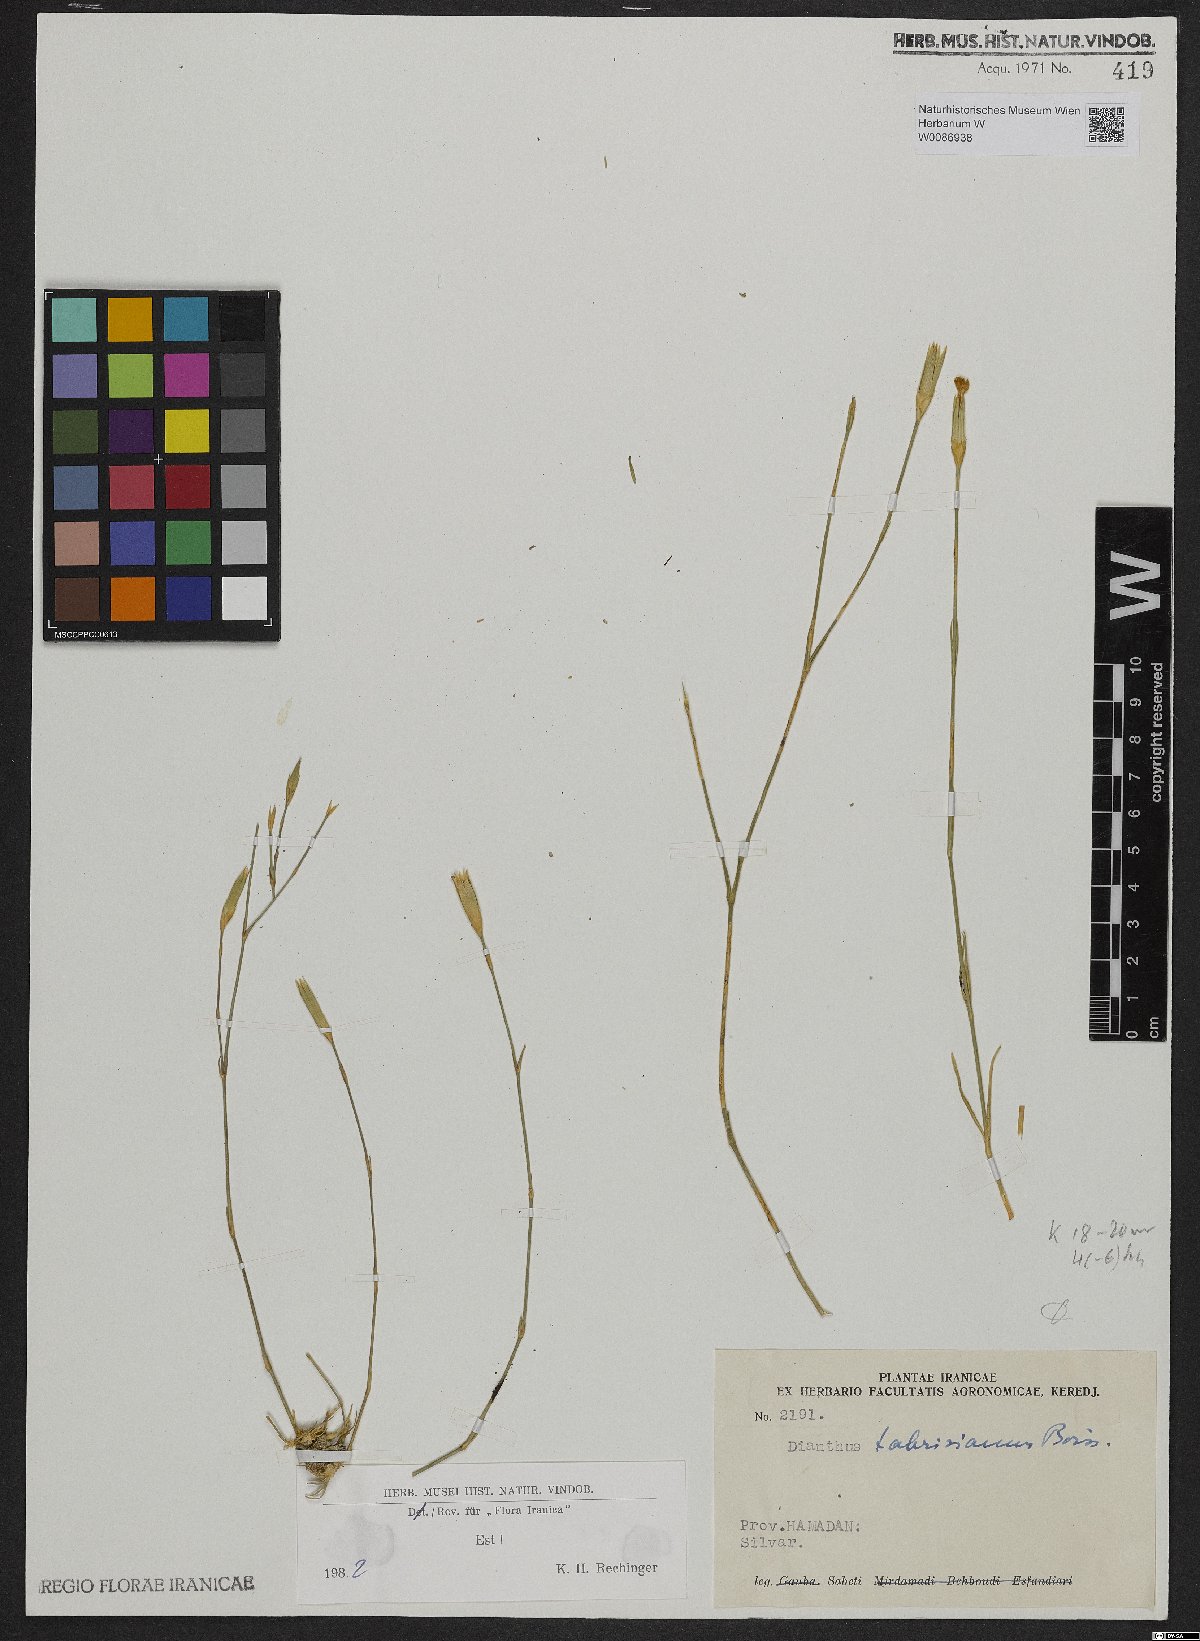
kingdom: Plantae
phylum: Tracheophyta
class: Magnoliopsida
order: Caryophyllales
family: Caryophyllaceae
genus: Dianthus
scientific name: Dianthus tabrisianus
